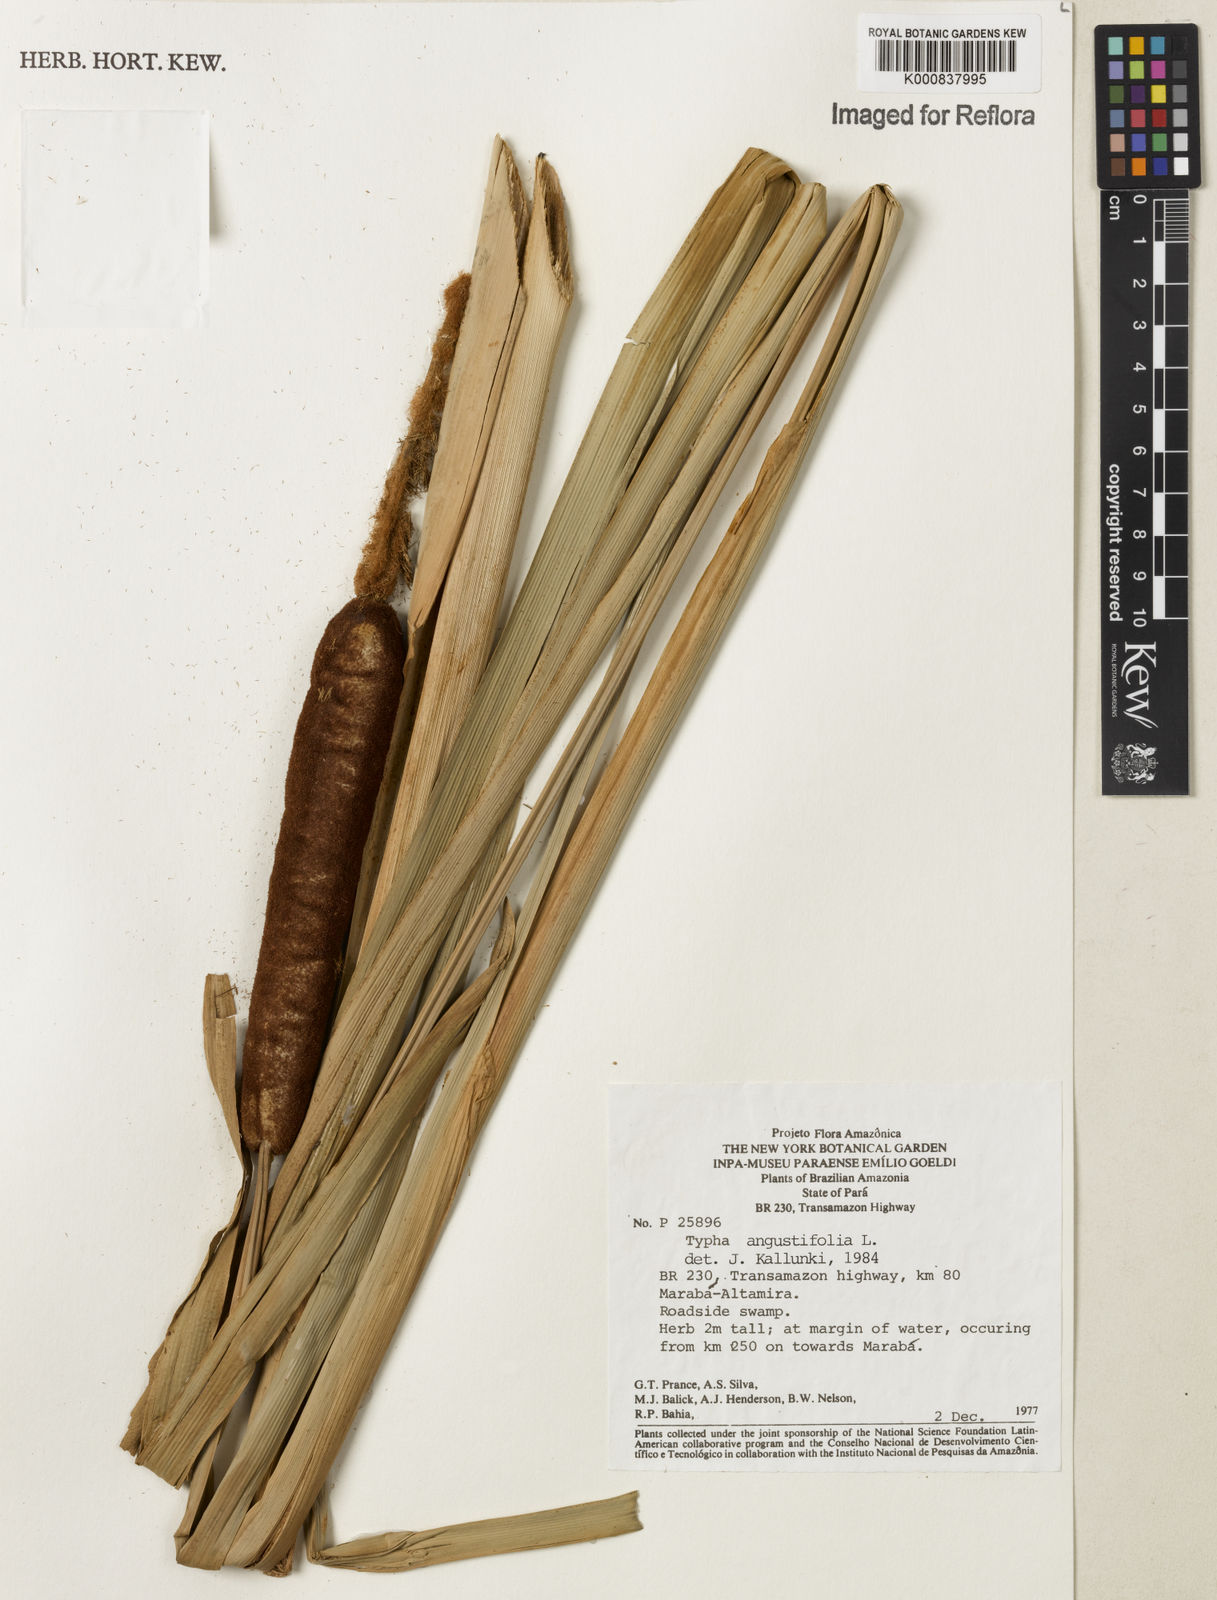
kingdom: Plantae
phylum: Tracheophyta
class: Liliopsida
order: Poales
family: Typhaceae
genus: Typha
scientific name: Typha angustifolia
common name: Lesser bulrush
